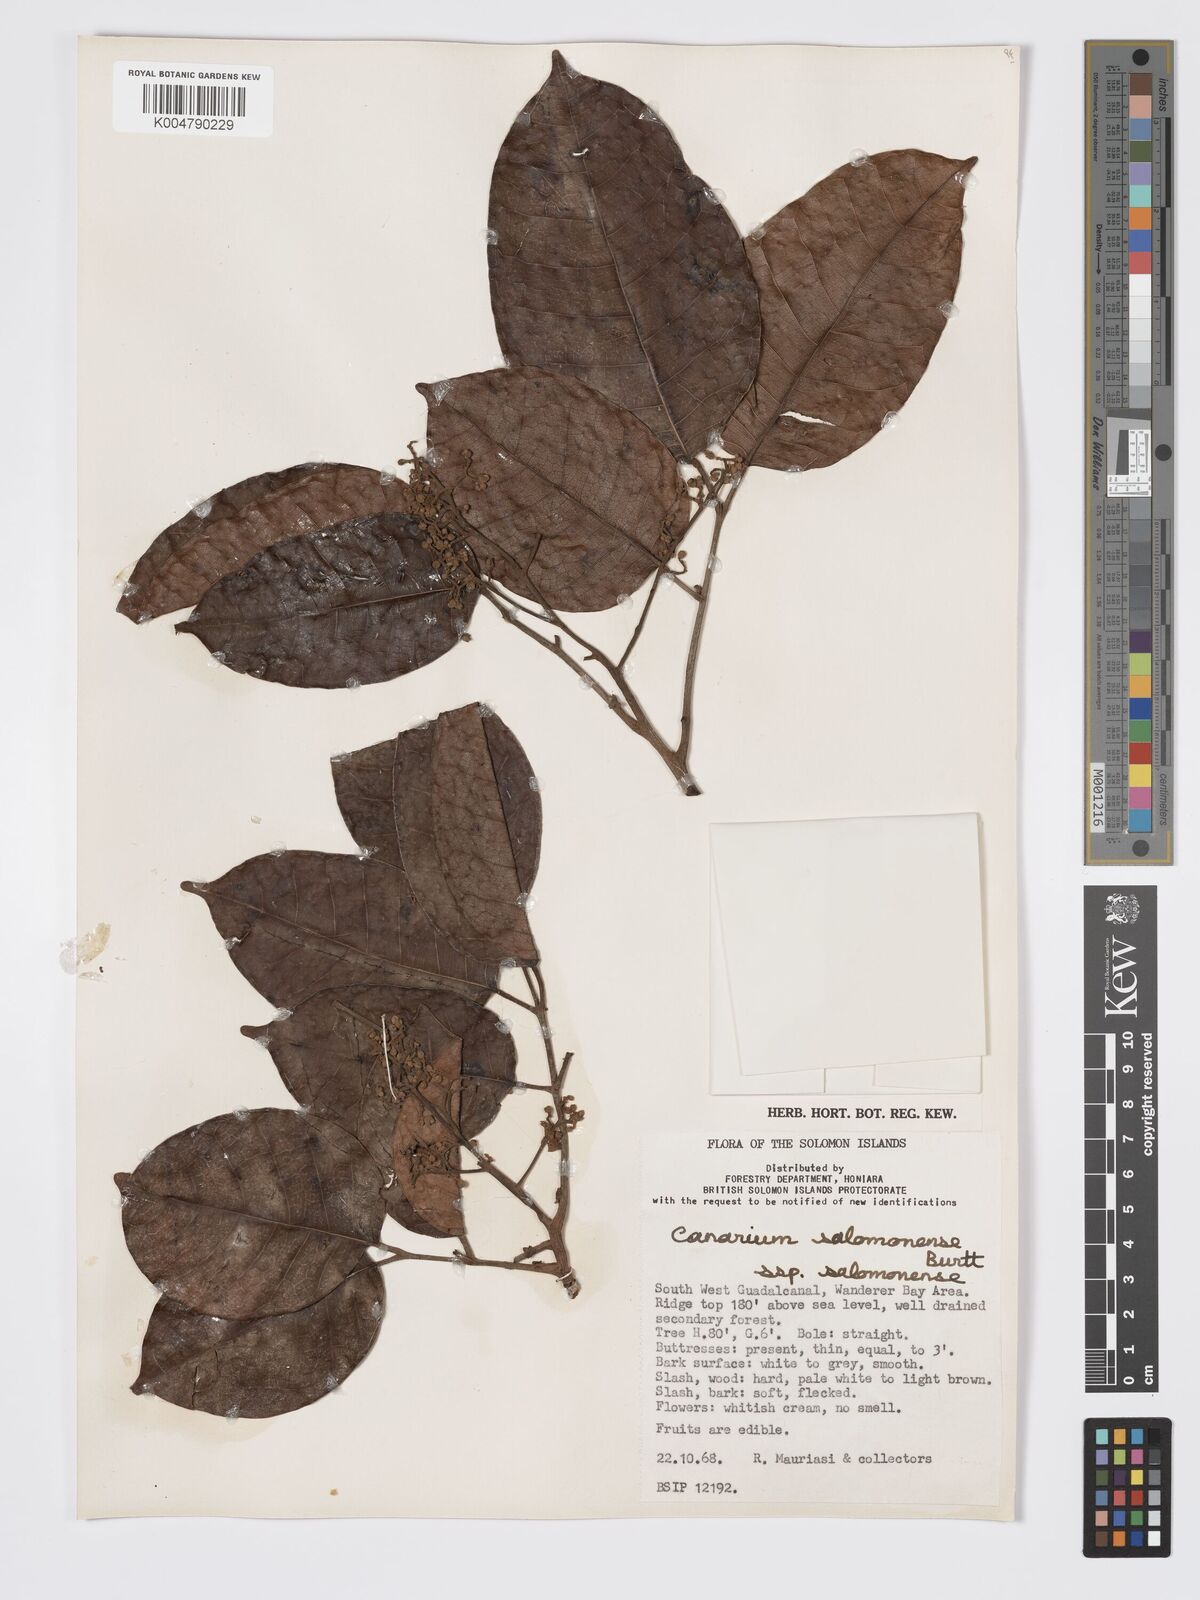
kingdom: Plantae
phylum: Tracheophyta
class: Magnoliopsida
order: Sapindales
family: Burseraceae
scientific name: Burseraceae
